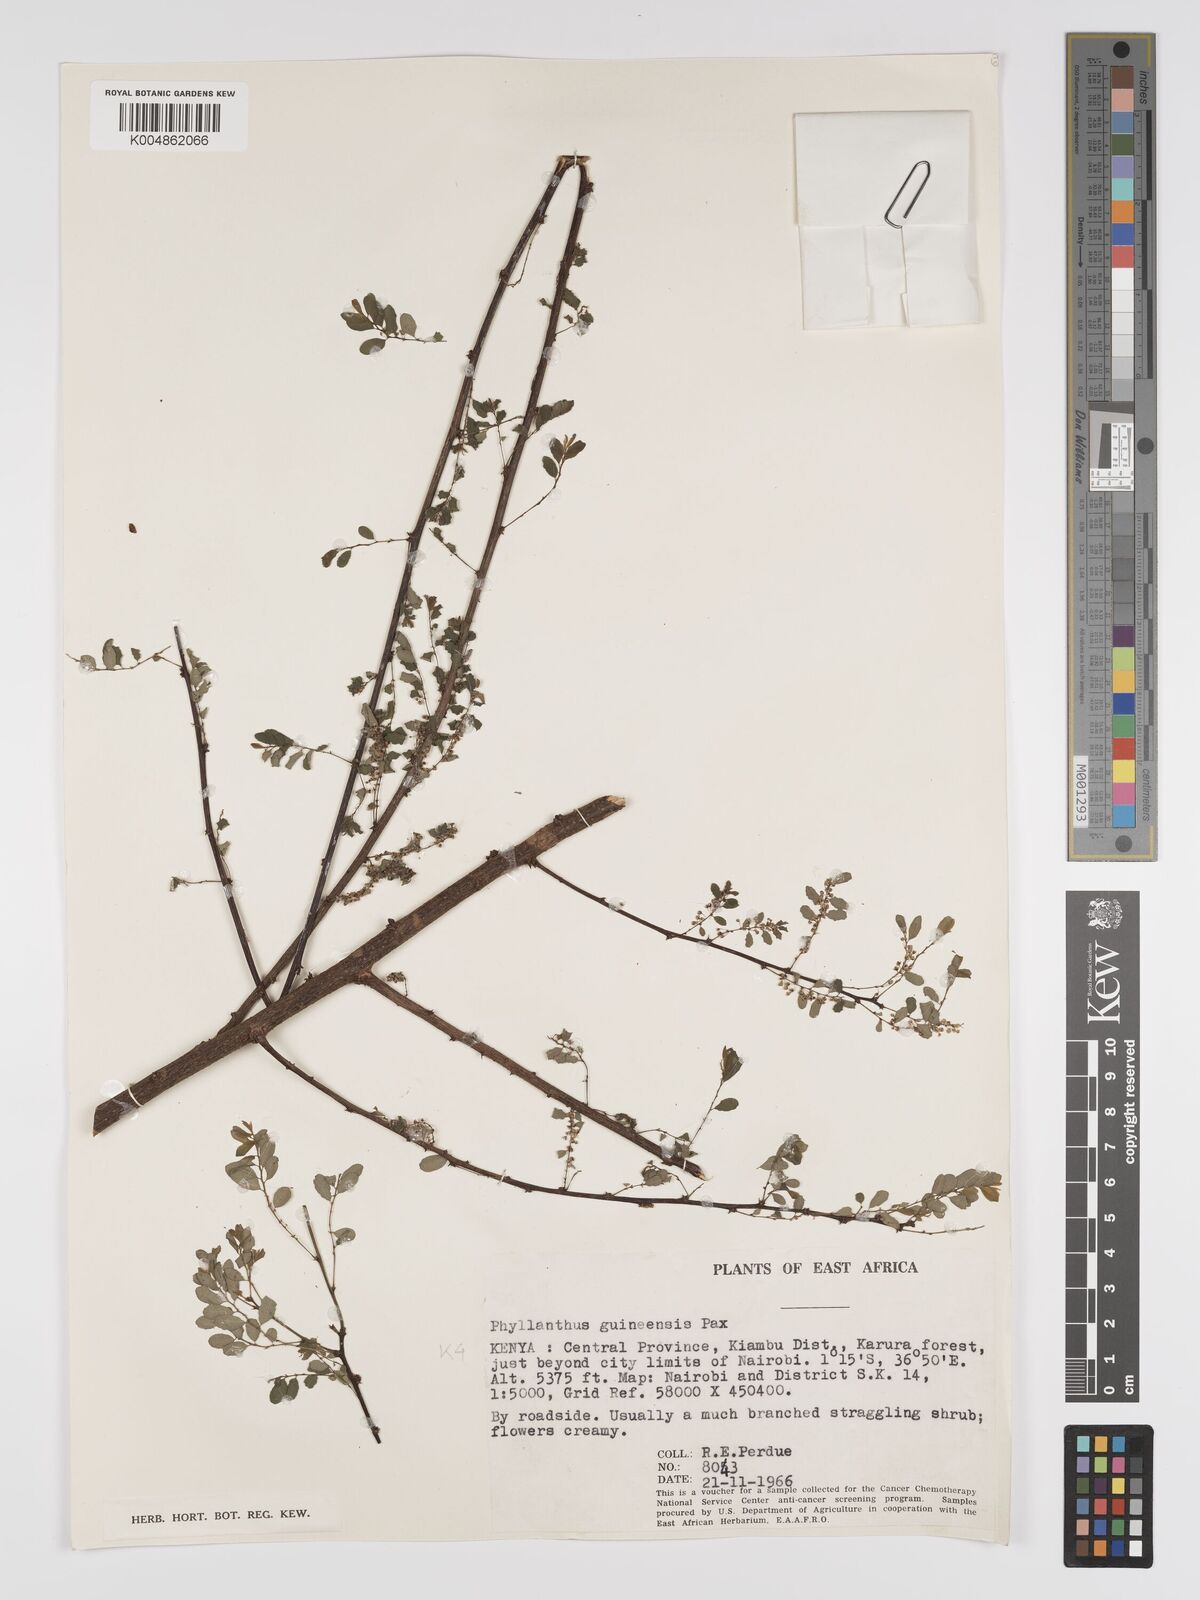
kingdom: Plantae
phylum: Tracheophyta
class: Magnoliopsida
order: Malpighiales
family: Phyllanthaceae
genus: Phyllanthus
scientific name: Phyllanthus ovalifolius
